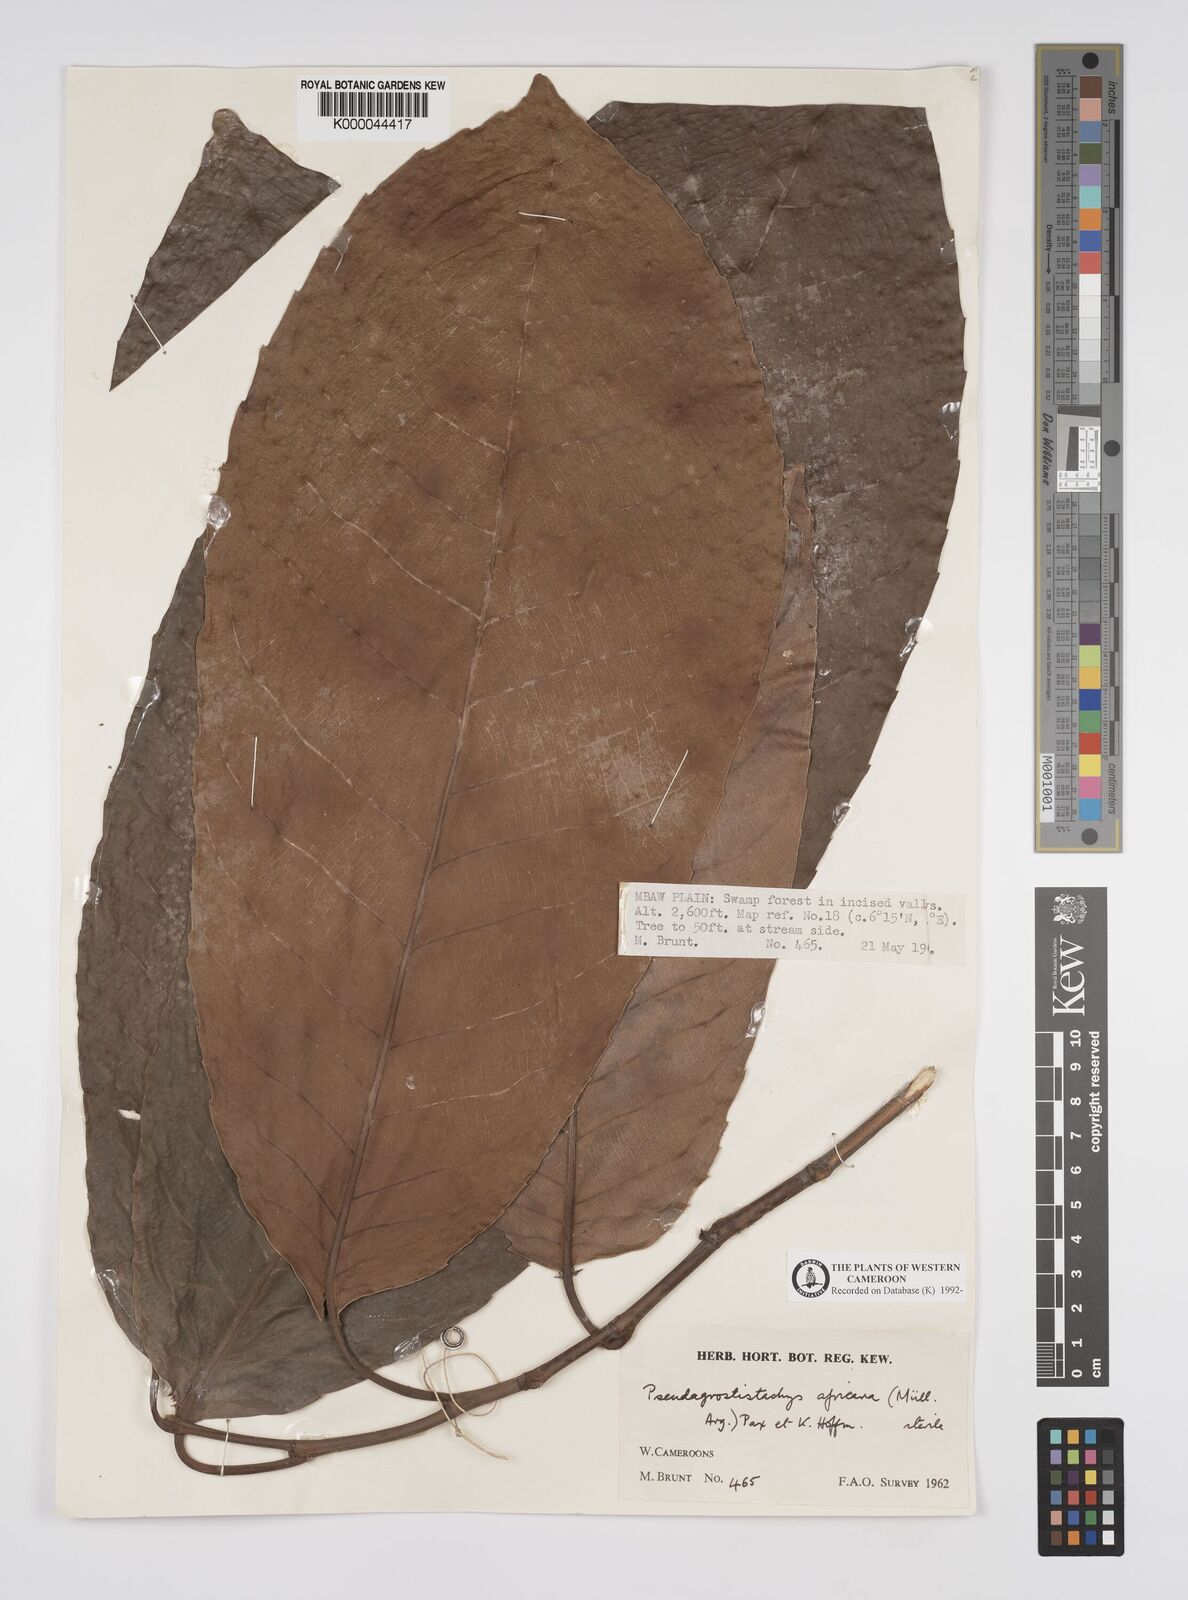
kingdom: Plantae
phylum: Tracheophyta
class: Magnoliopsida
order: Malpighiales
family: Euphorbiaceae
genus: Pseudagrostistachys
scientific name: Pseudagrostistachys
